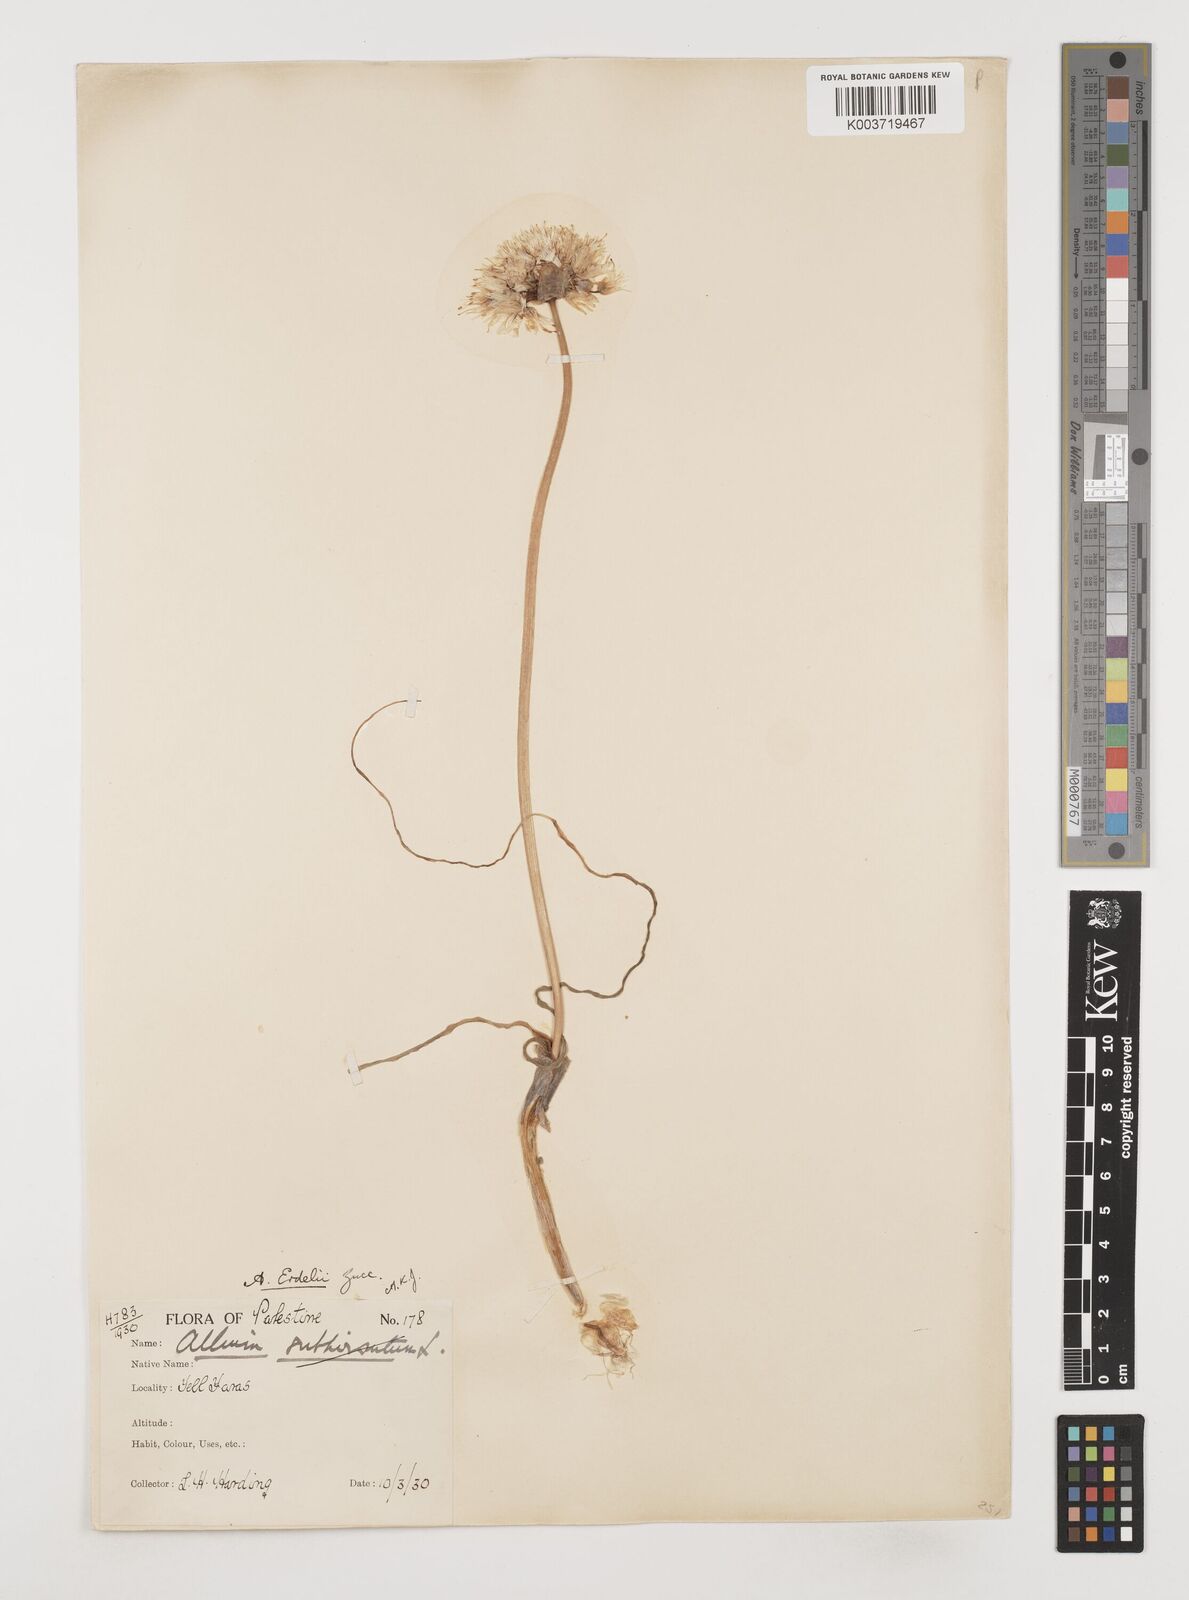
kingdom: Plantae
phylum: Tracheophyta
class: Liliopsida
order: Asparagales
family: Amaryllidaceae
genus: Allium
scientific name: Allium erdelii
